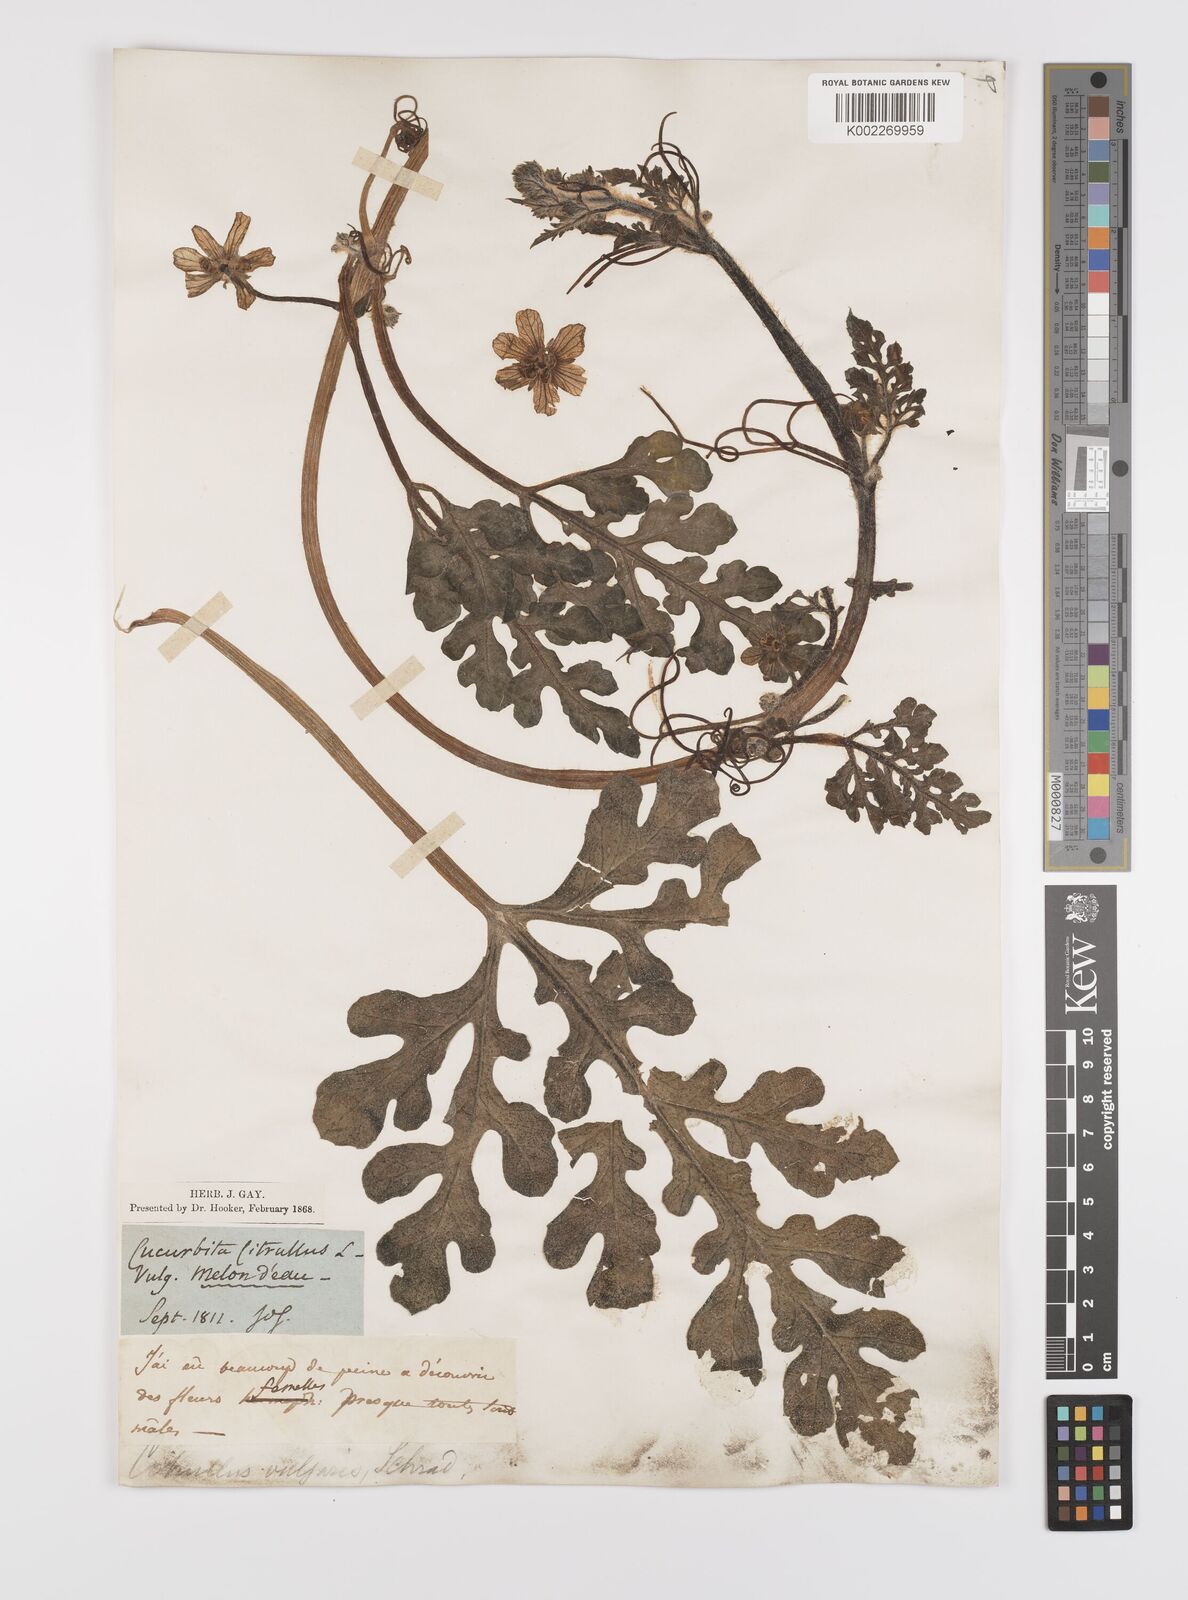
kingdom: Plantae
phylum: Tracheophyta
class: Magnoliopsida
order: Cucurbitales
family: Cucurbitaceae
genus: Citrullus
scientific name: Citrullus lanatus
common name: Watermelon
